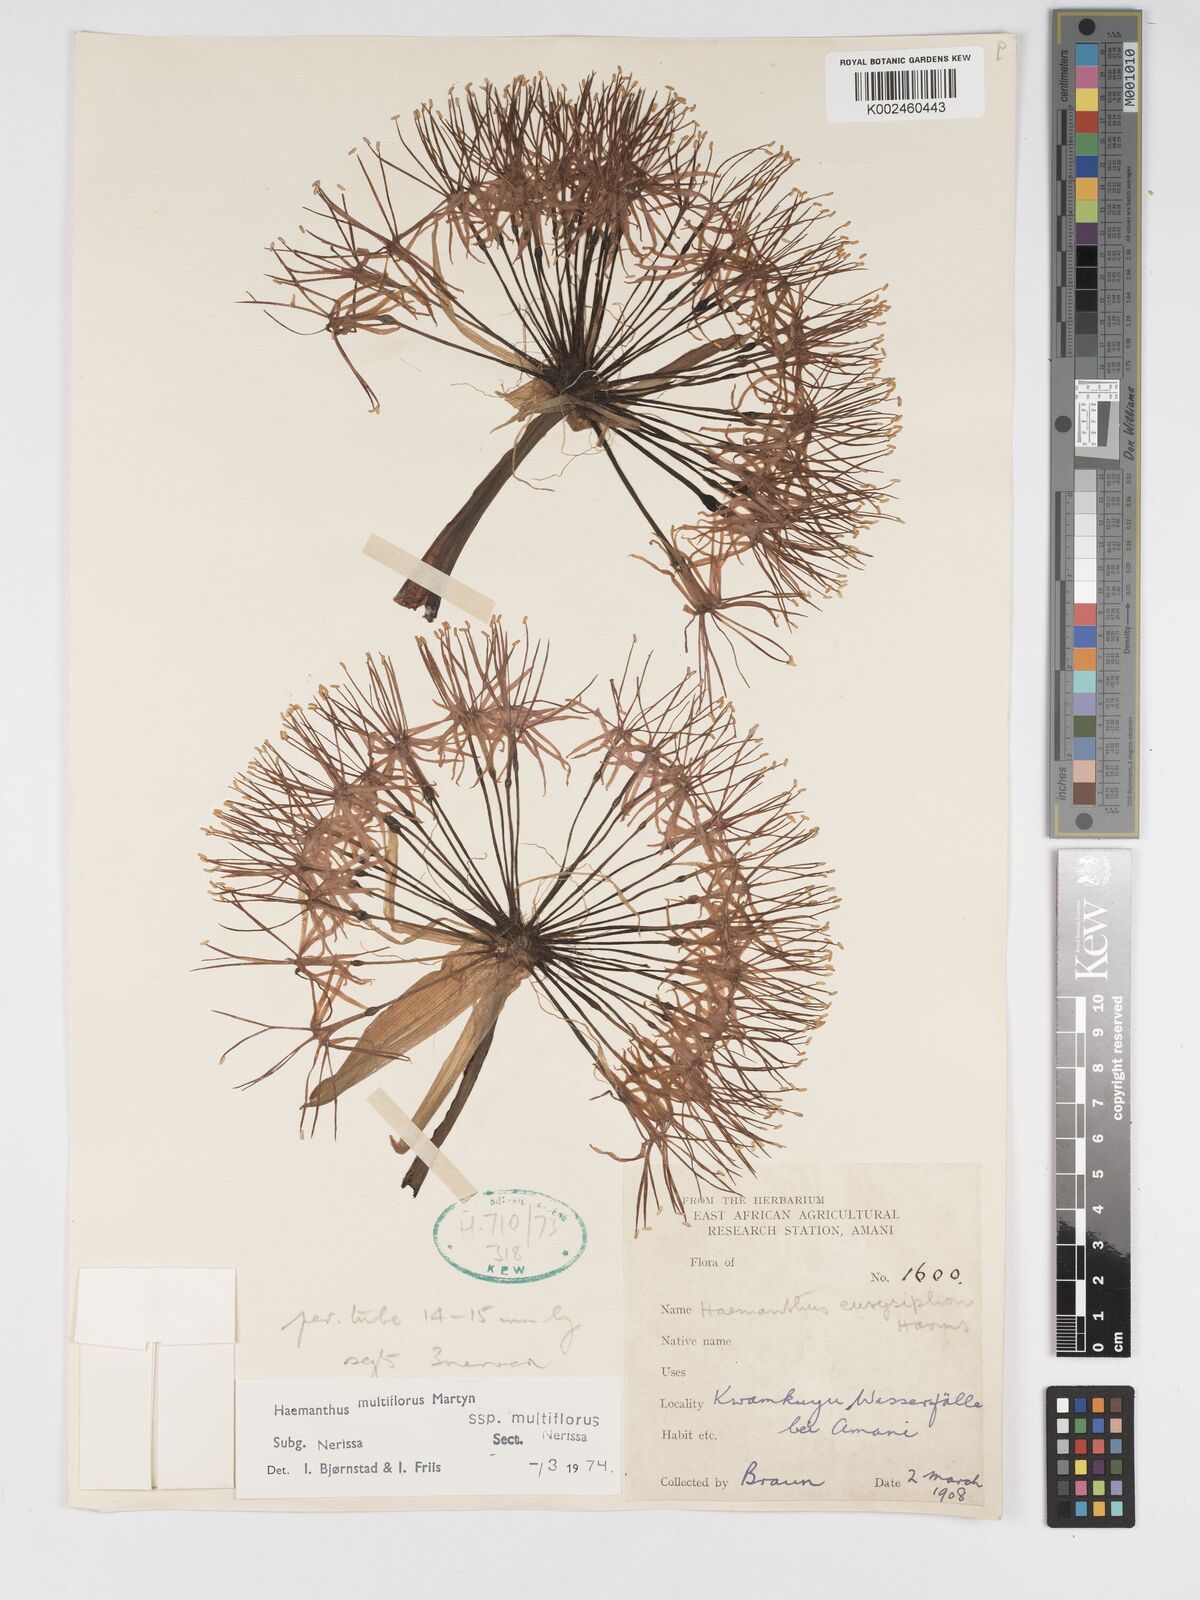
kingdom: Plantae
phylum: Tracheophyta
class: Liliopsida
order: Asparagales
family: Amaryllidaceae
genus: Scadoxus
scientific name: Scadoxus multiflorus
